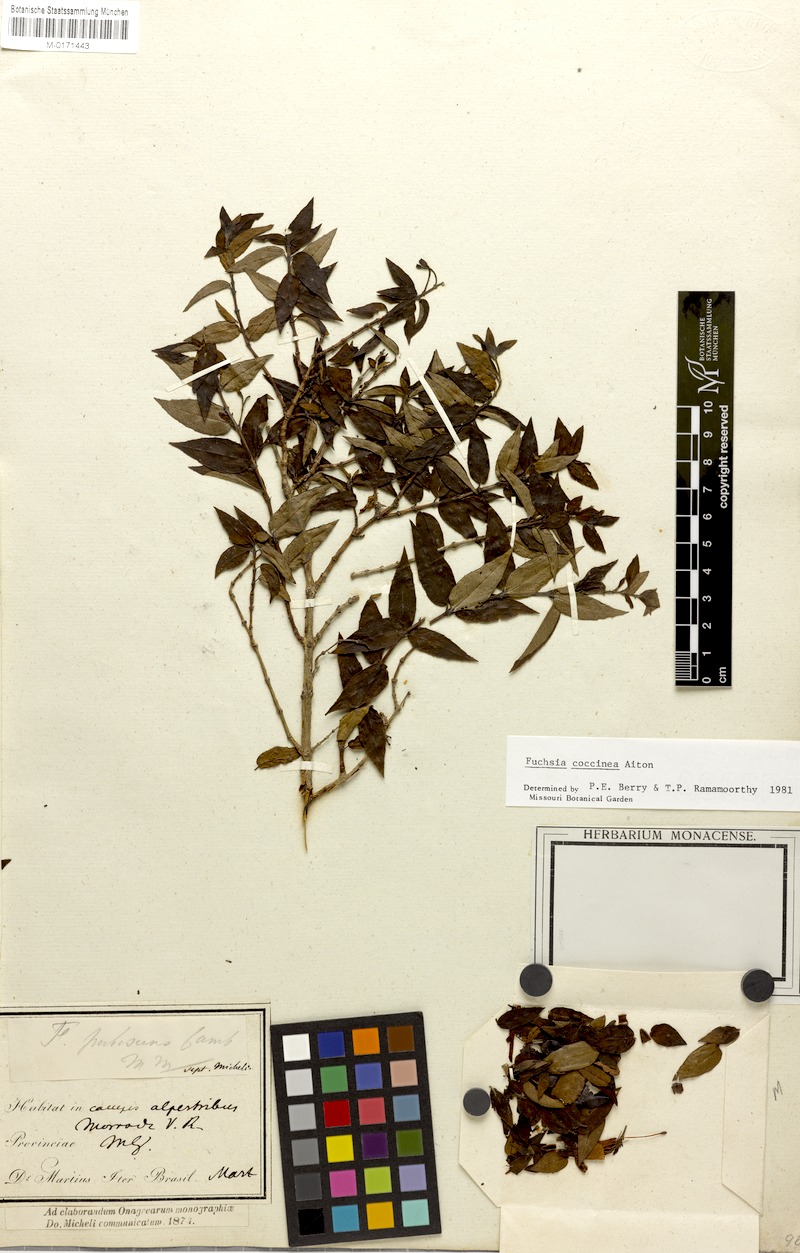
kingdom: Plantae
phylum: Tracheophyta
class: Magnoliopsida
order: Myrtales
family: Onagraceae
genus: Fuchsia
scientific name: Fuchsia coccinea
